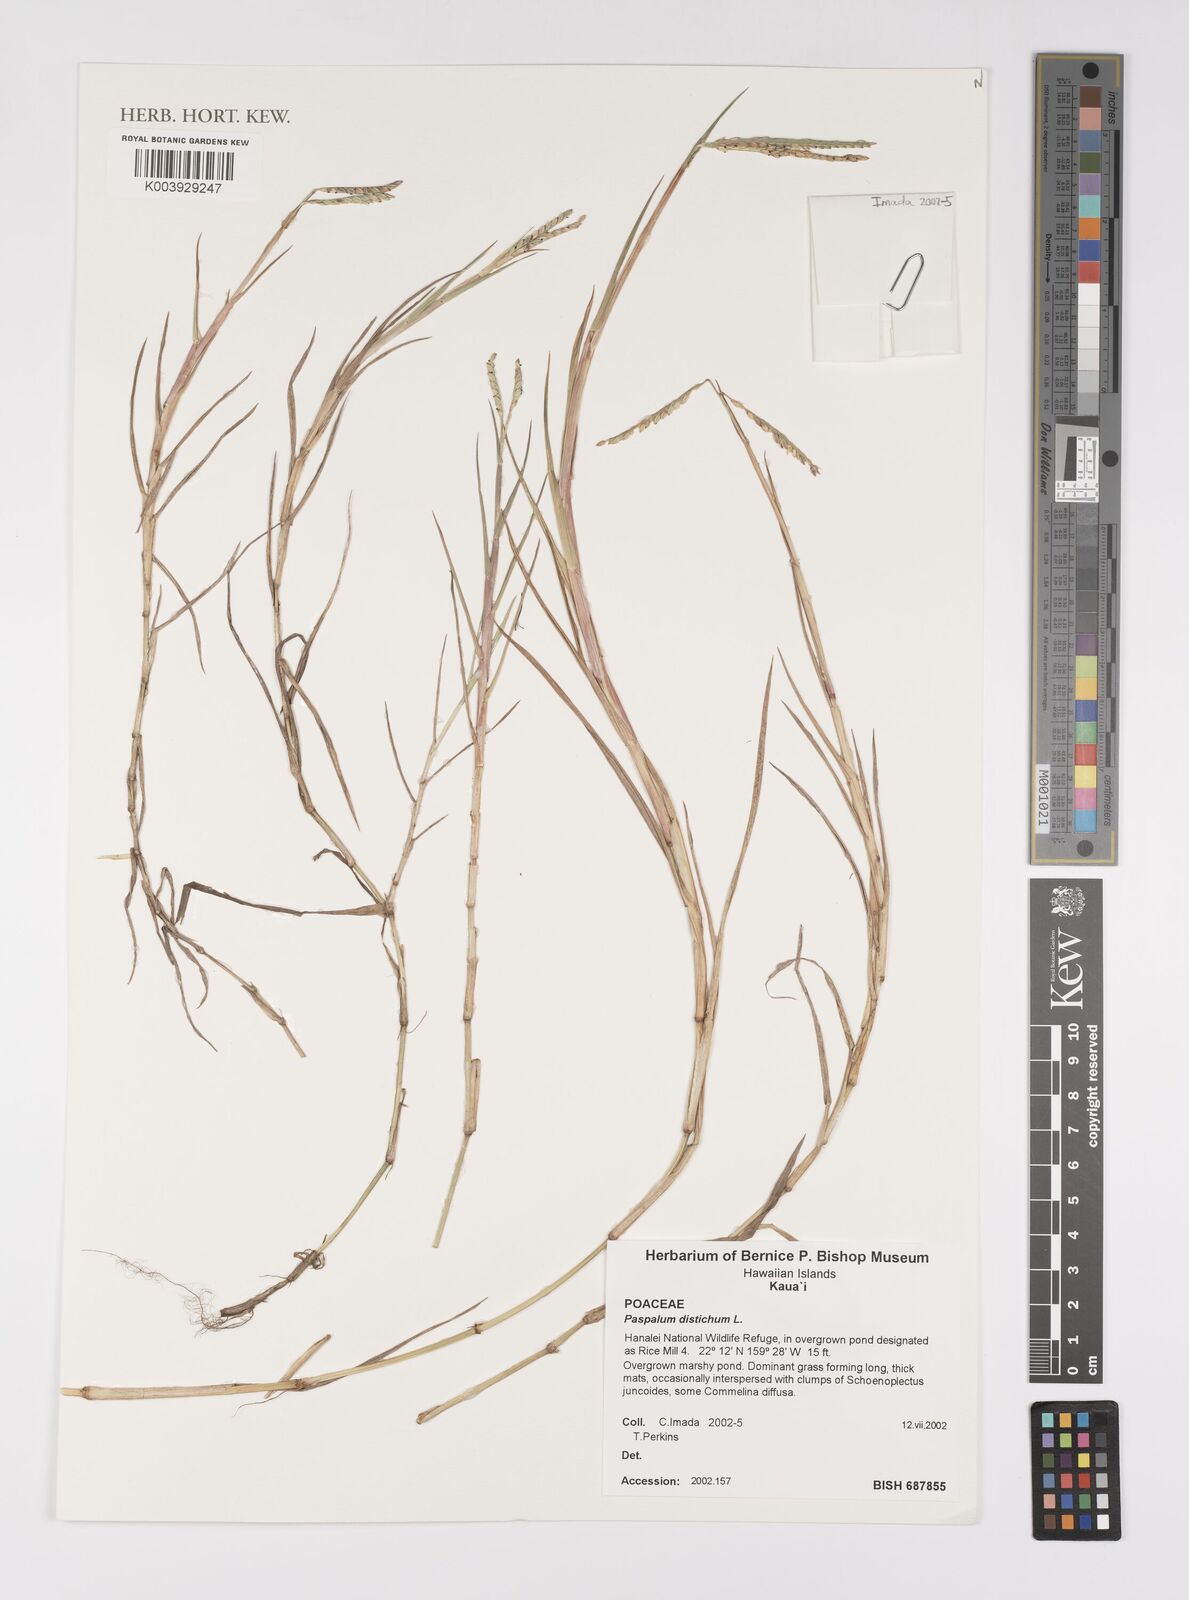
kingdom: Plantae
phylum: Tracheophyta
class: Liliopsida
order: Poales
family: Poaceae
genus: Paspalum
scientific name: Paspalum distichum
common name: Knotgrass
